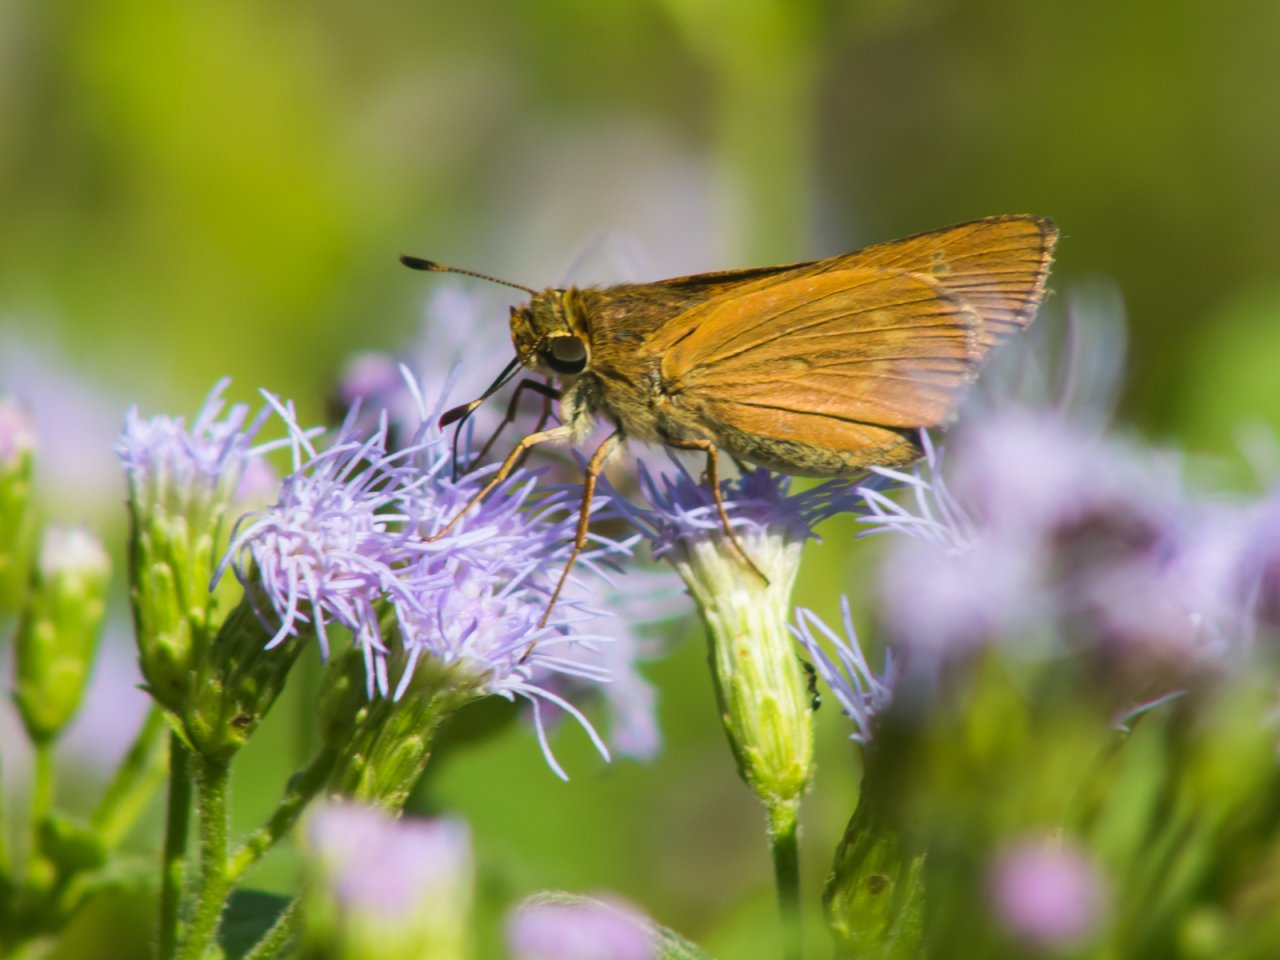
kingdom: Animalia
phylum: Arthropoda
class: Insecta
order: Lepidoptera
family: Hesperiidae
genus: Mellana
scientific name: Mellana eulogius
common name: Common Mellana
